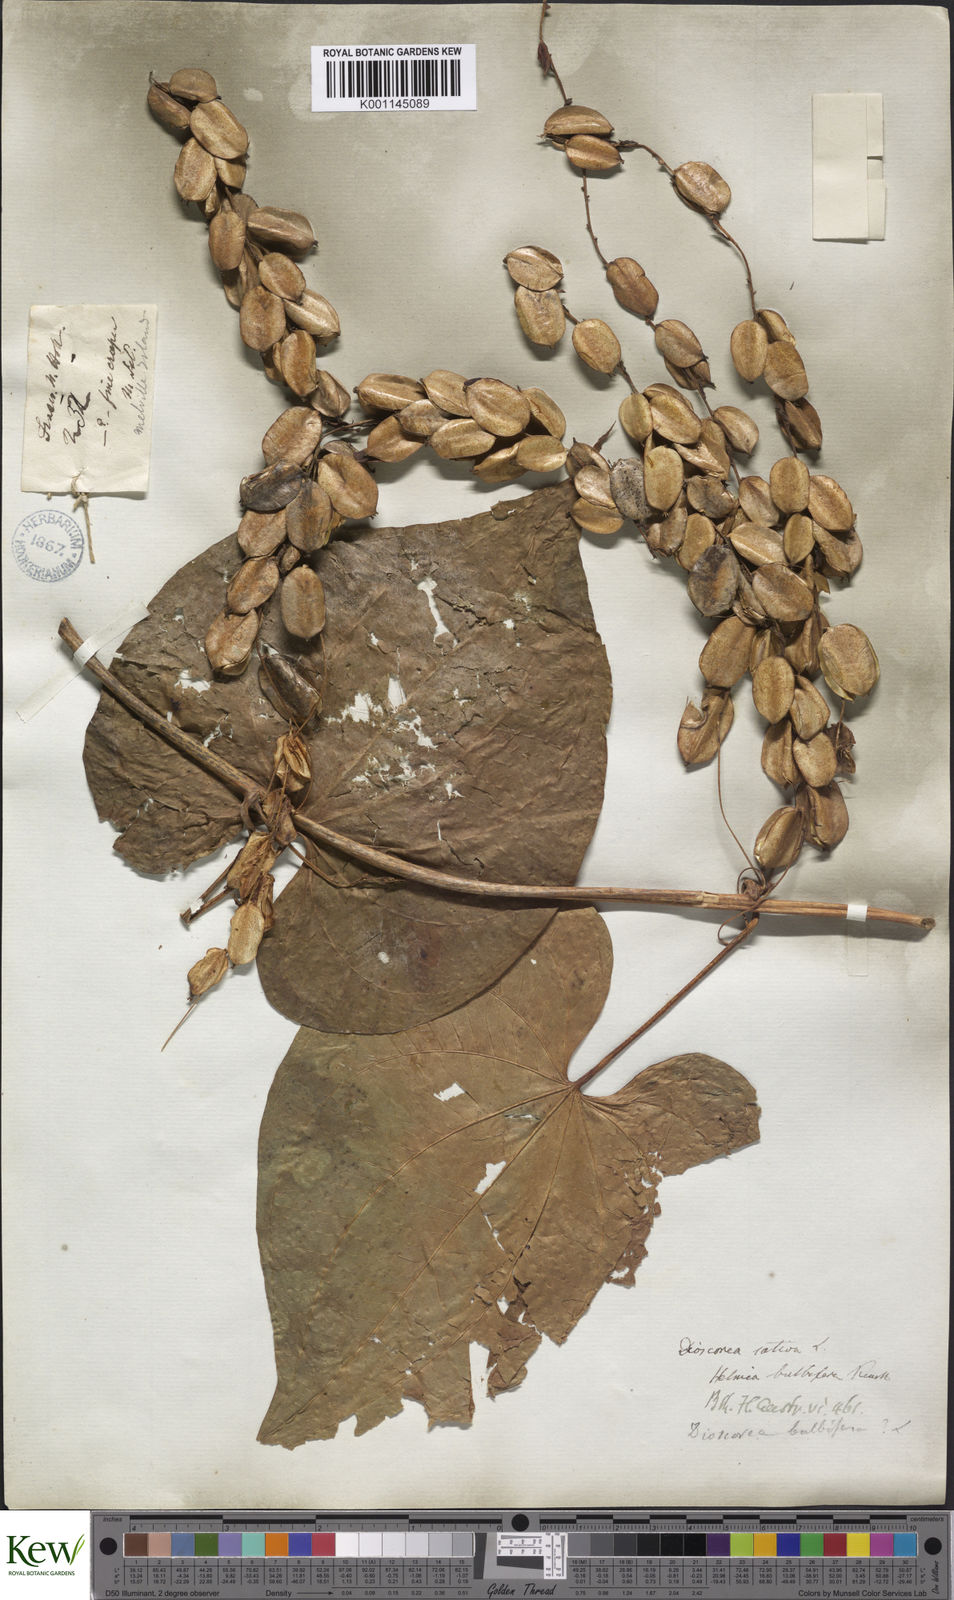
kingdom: Plantae
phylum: Tracheophyta
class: Liliopsida
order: Dioscoreales
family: Dioscoreaceae
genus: Dioscorea
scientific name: Dioscorea bulbifera
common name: Air yam
